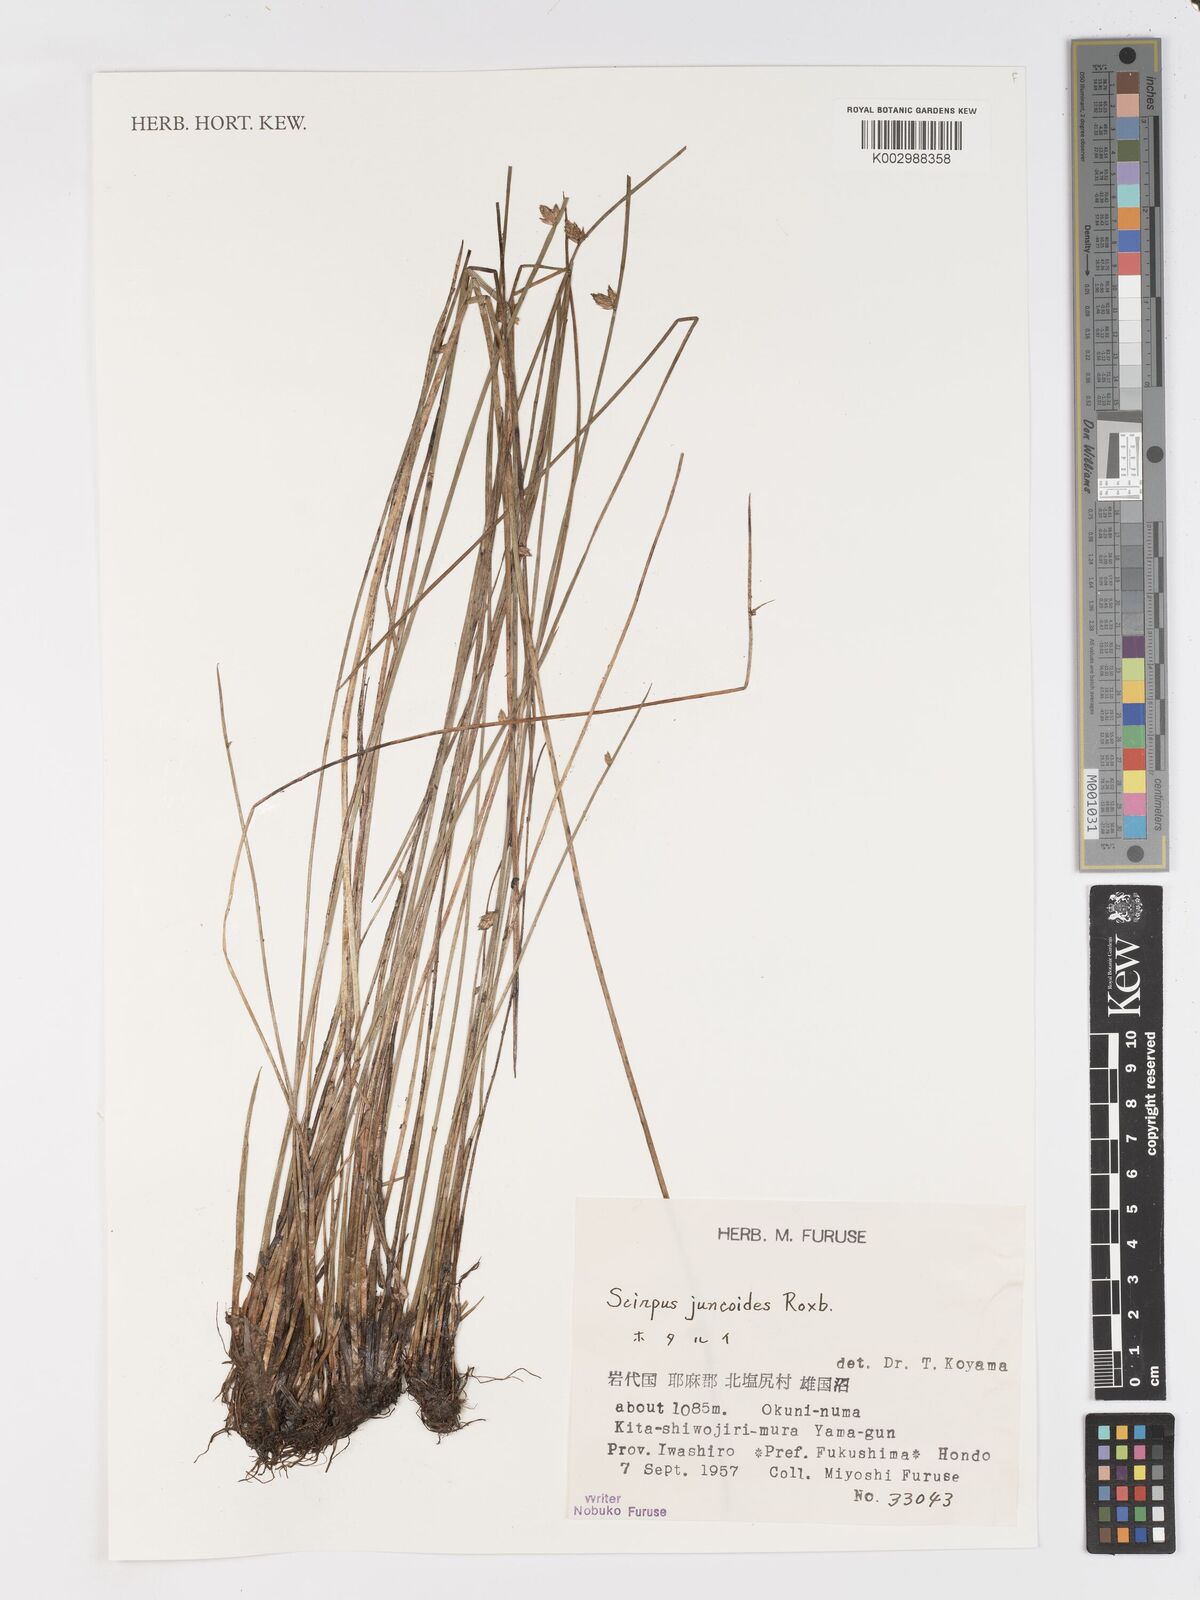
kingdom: Plantae
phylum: Tracheophyta
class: Liliopsida
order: Poales
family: Cyperaceae
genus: Schoenoplectiella
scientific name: Schoenoplectiella juncoides
